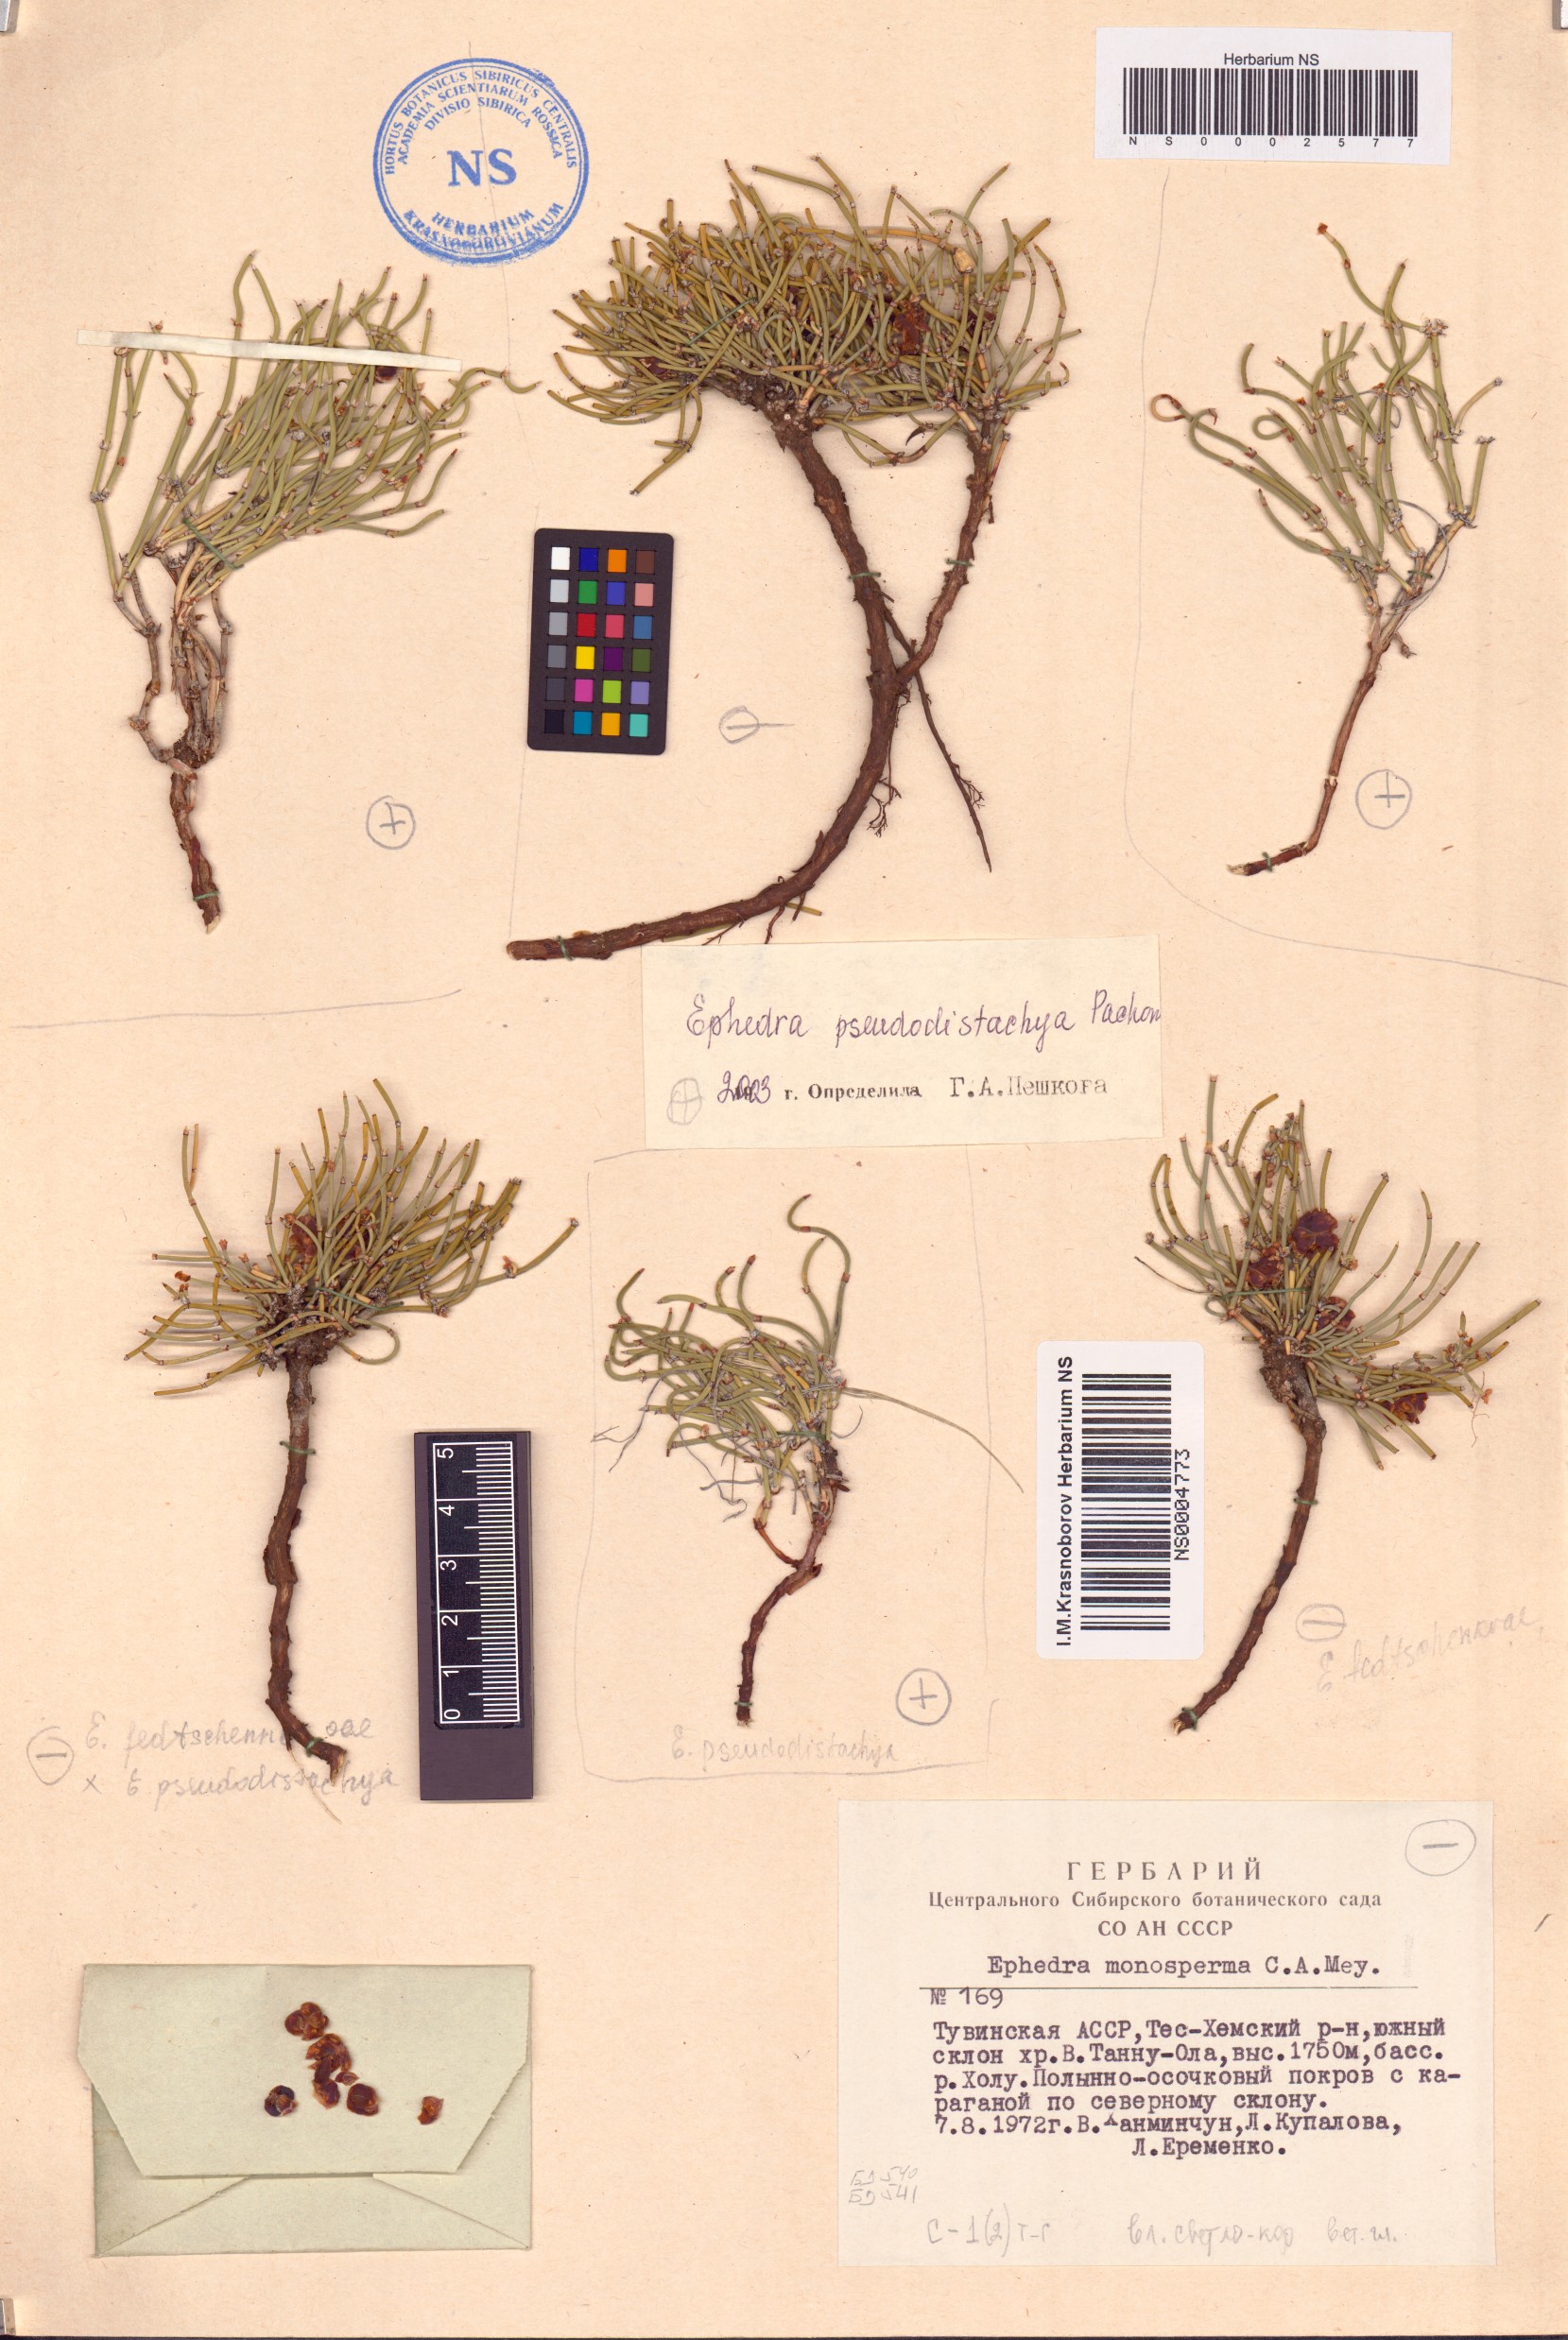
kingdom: Plantae
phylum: Tracheophyta
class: Gnetopsida
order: Ephedrales
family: Ephedraceae
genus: Ephedra
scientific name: Ephedra pseudodistachya
